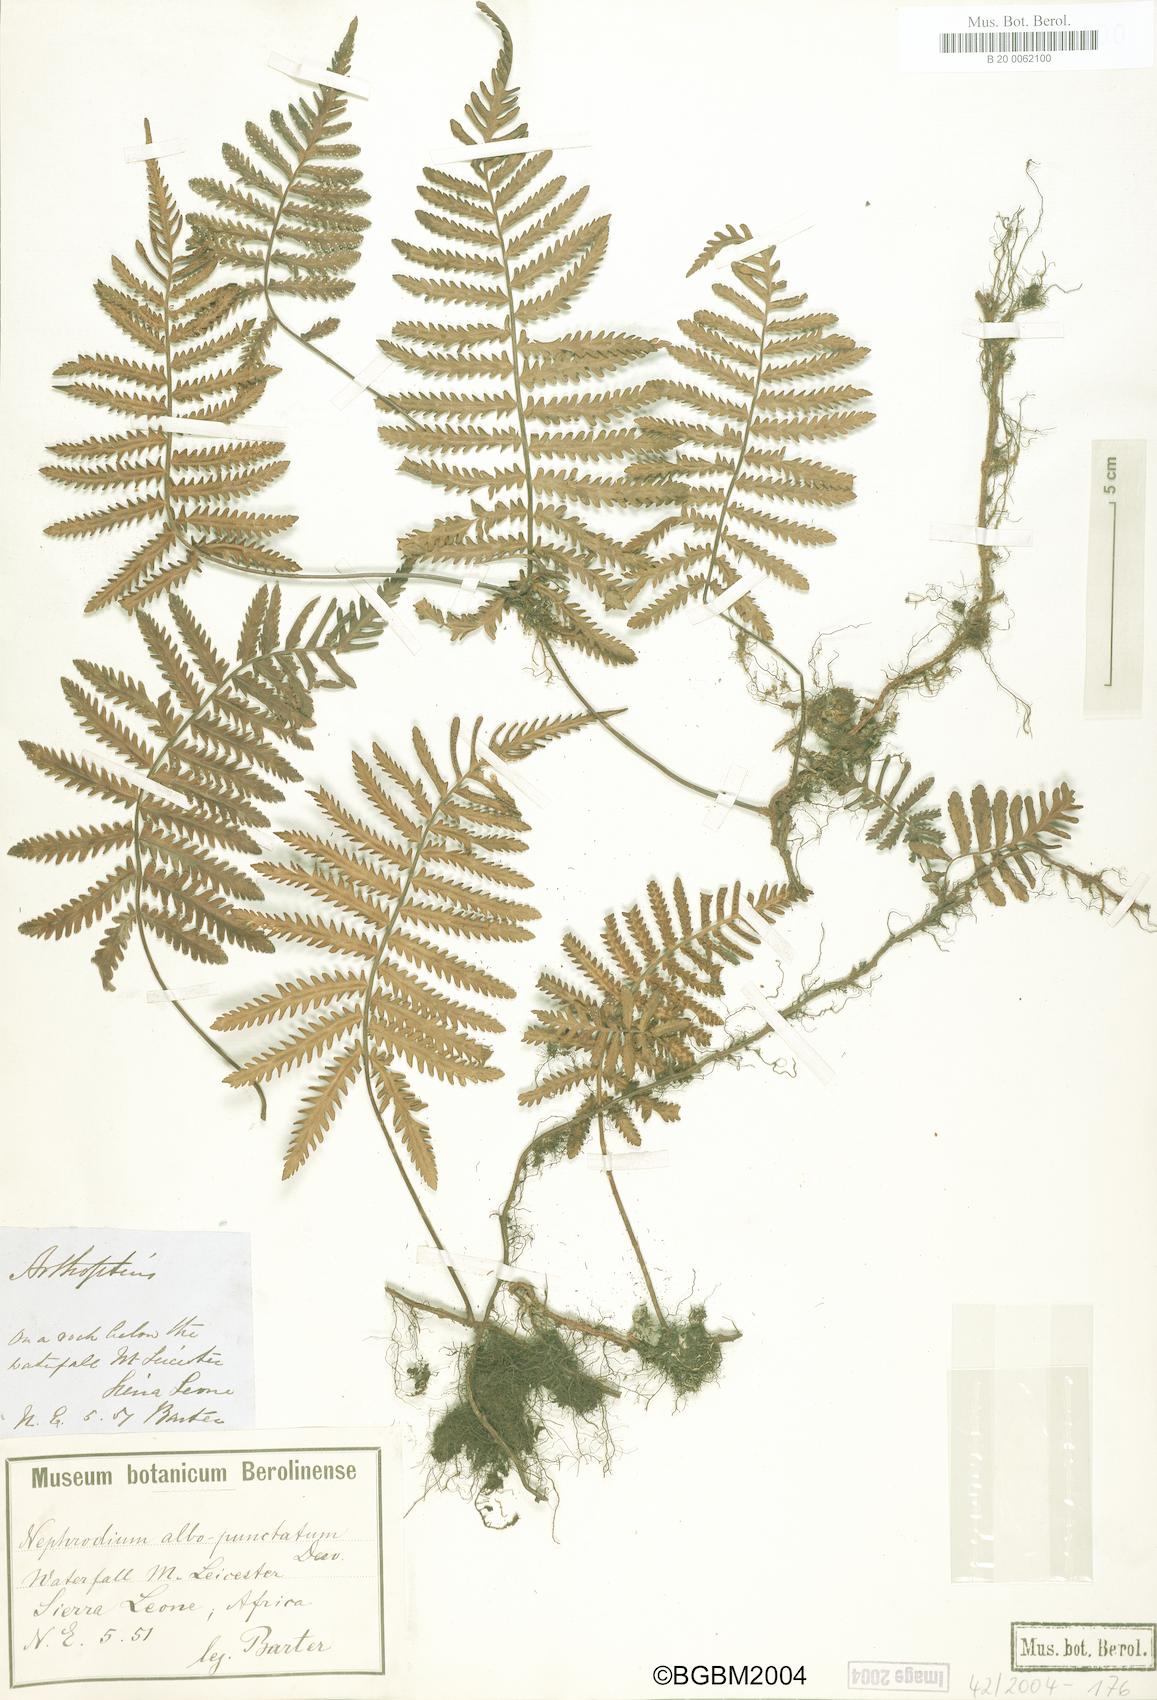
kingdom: Plantae
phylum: Tracheophyta
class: Polypodiopsida
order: Polypodiales
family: Tectariaceae
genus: Arthropteris
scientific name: Arthropteris orientalis
